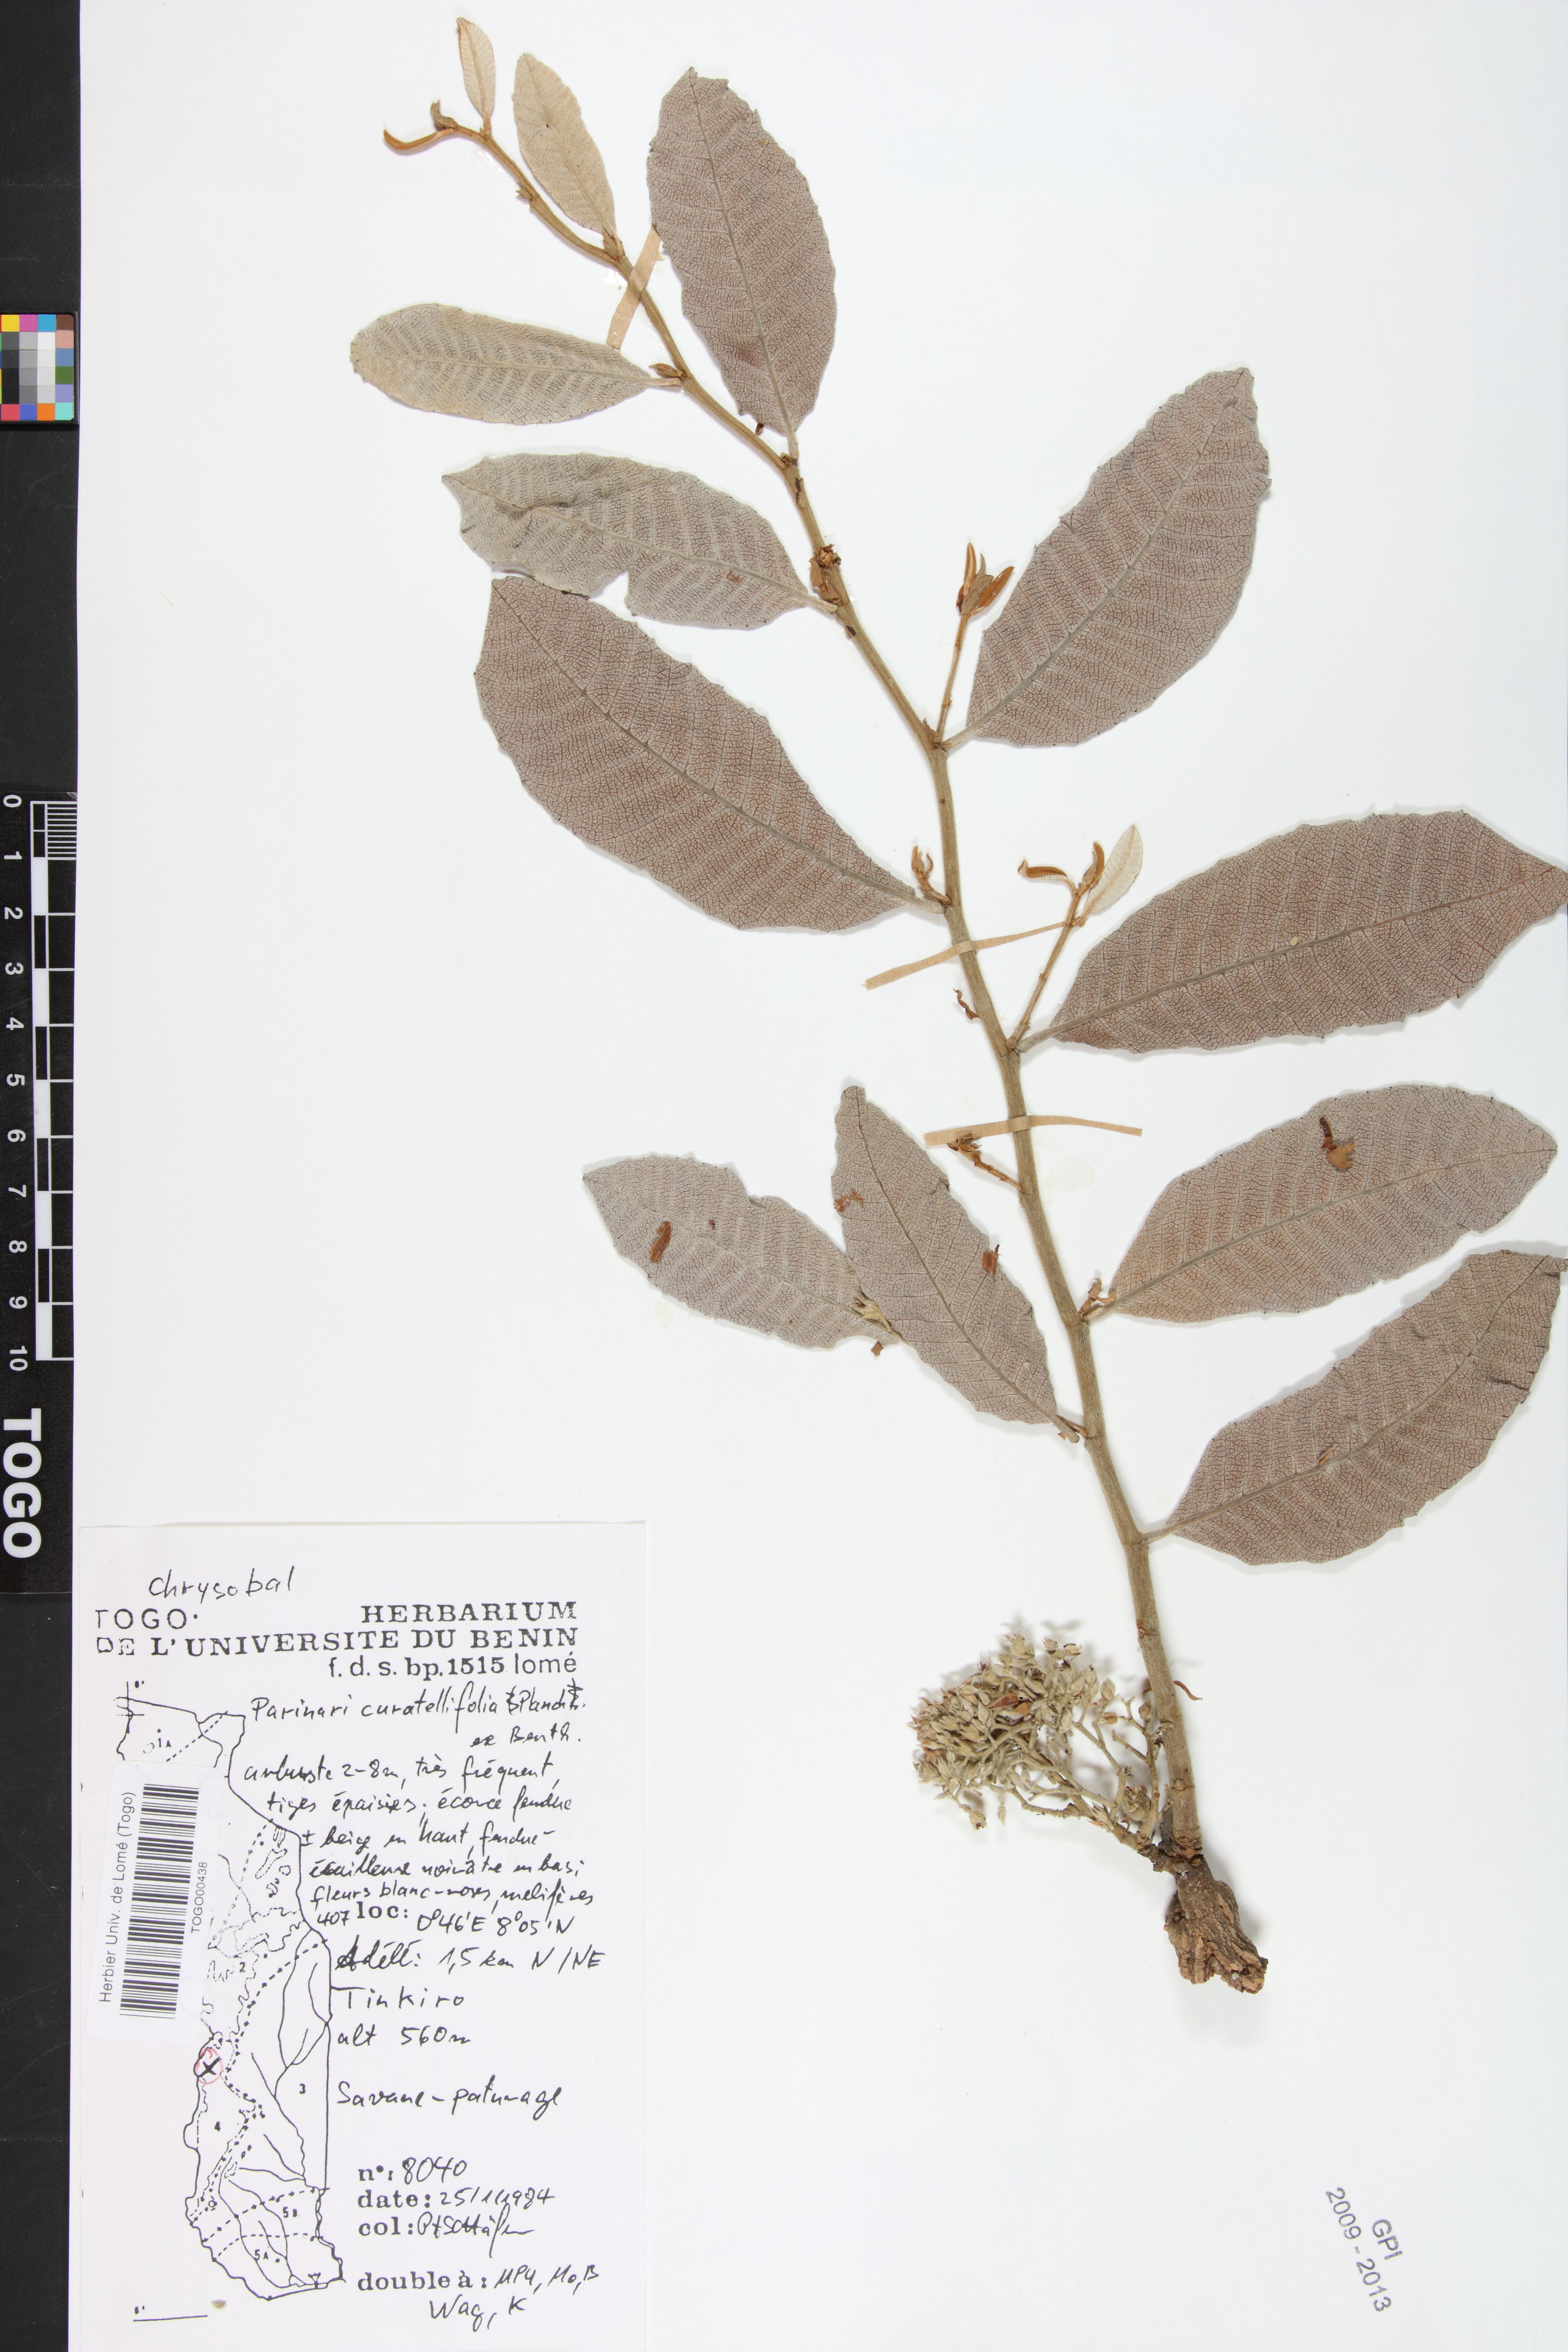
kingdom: Plantae
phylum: Tracheophyta
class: Magnoliopsida
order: Malpighiales
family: Chrysobalanaceae
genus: Parinari
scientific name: Parinari curatellifolia
